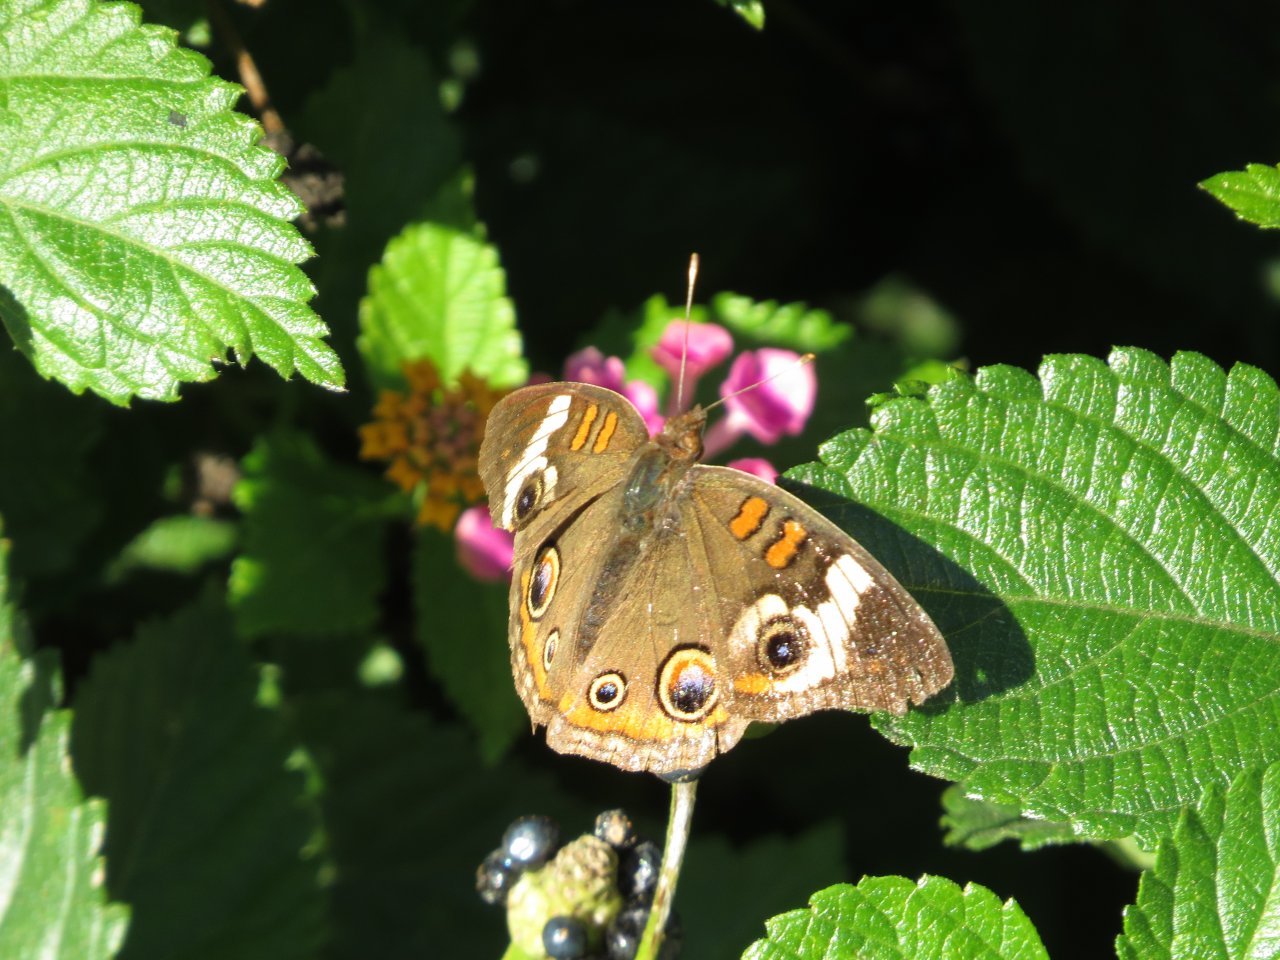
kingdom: Animalia
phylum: Arthropoda
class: Insecta
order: Lepidoptera
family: Nymphalidae
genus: Junonia
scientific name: Junonia coenia
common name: Common Buckeye
